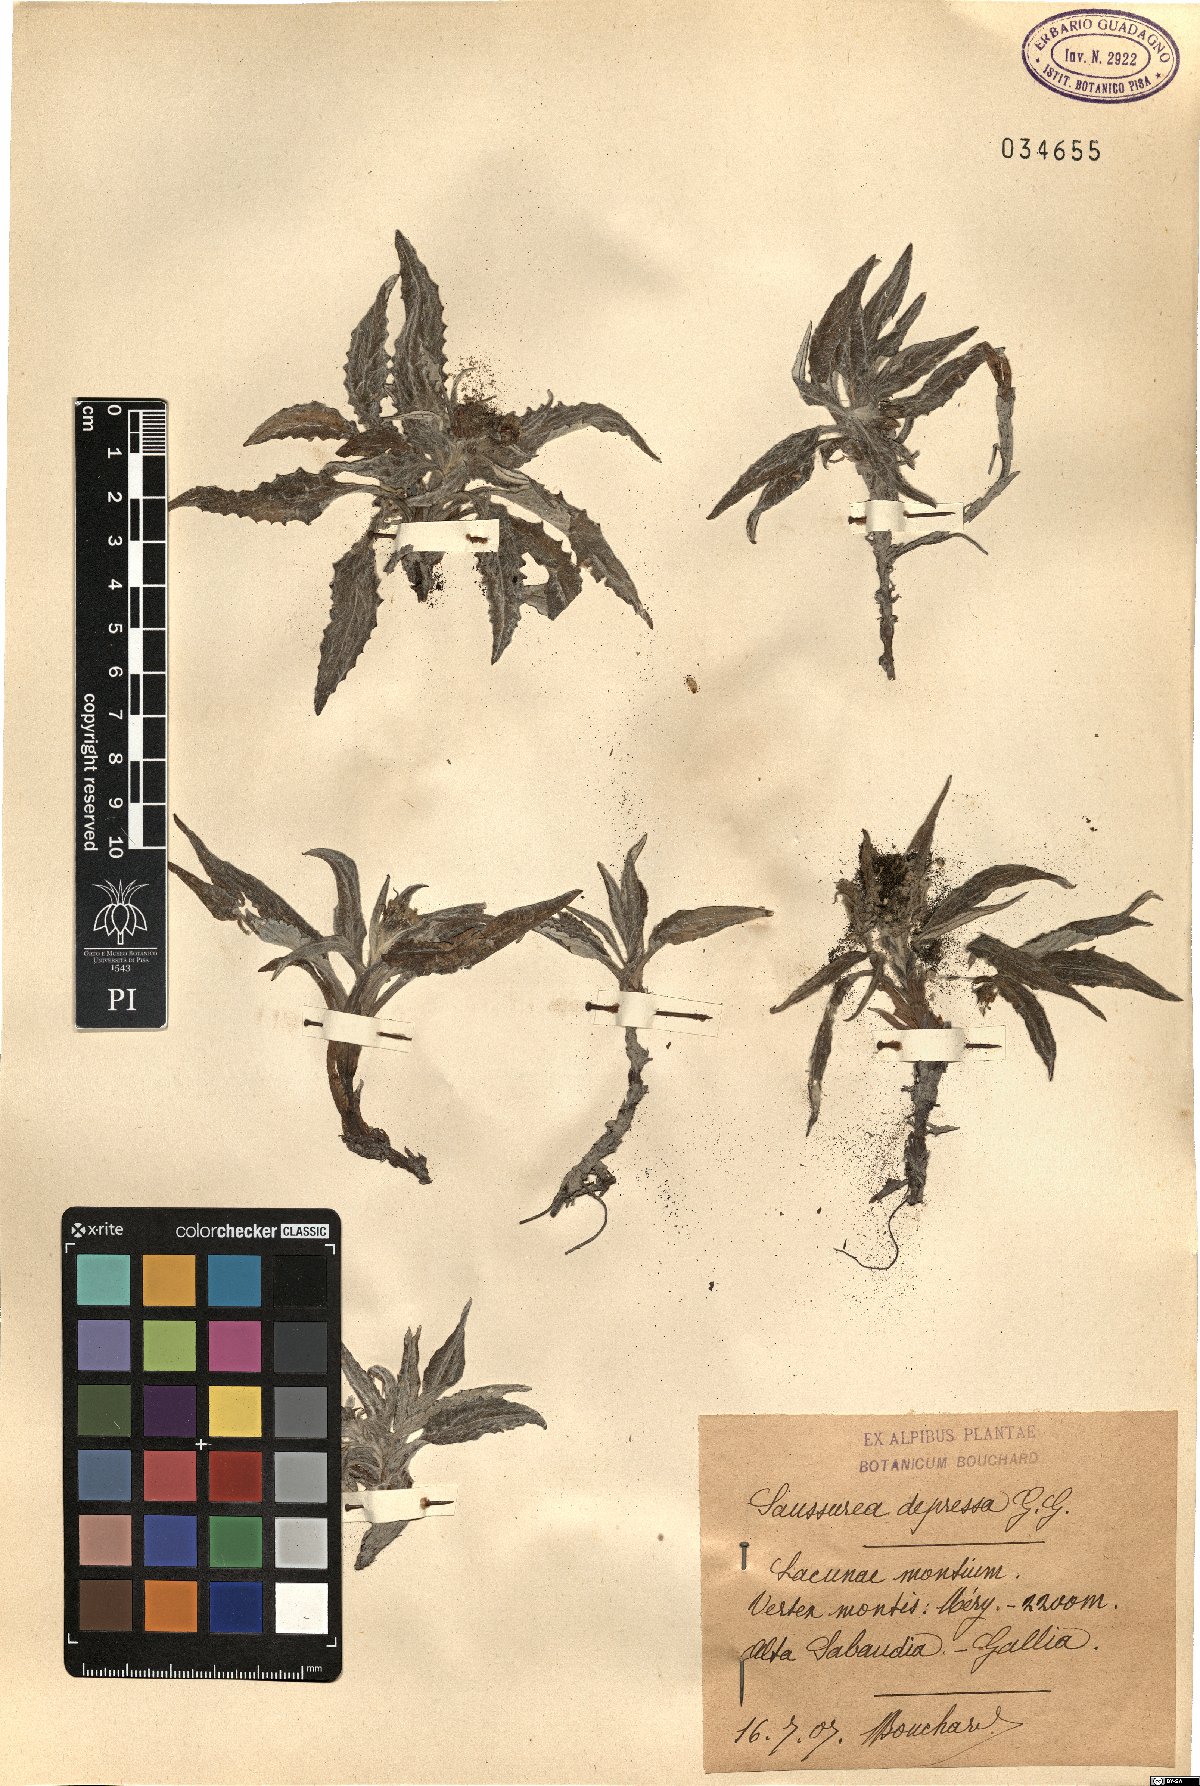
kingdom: Plantae
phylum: Tracheophyta
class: Magnoliopsida
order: Asterales
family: Asteraceae
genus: Saussurea
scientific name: Saussurea depressa
